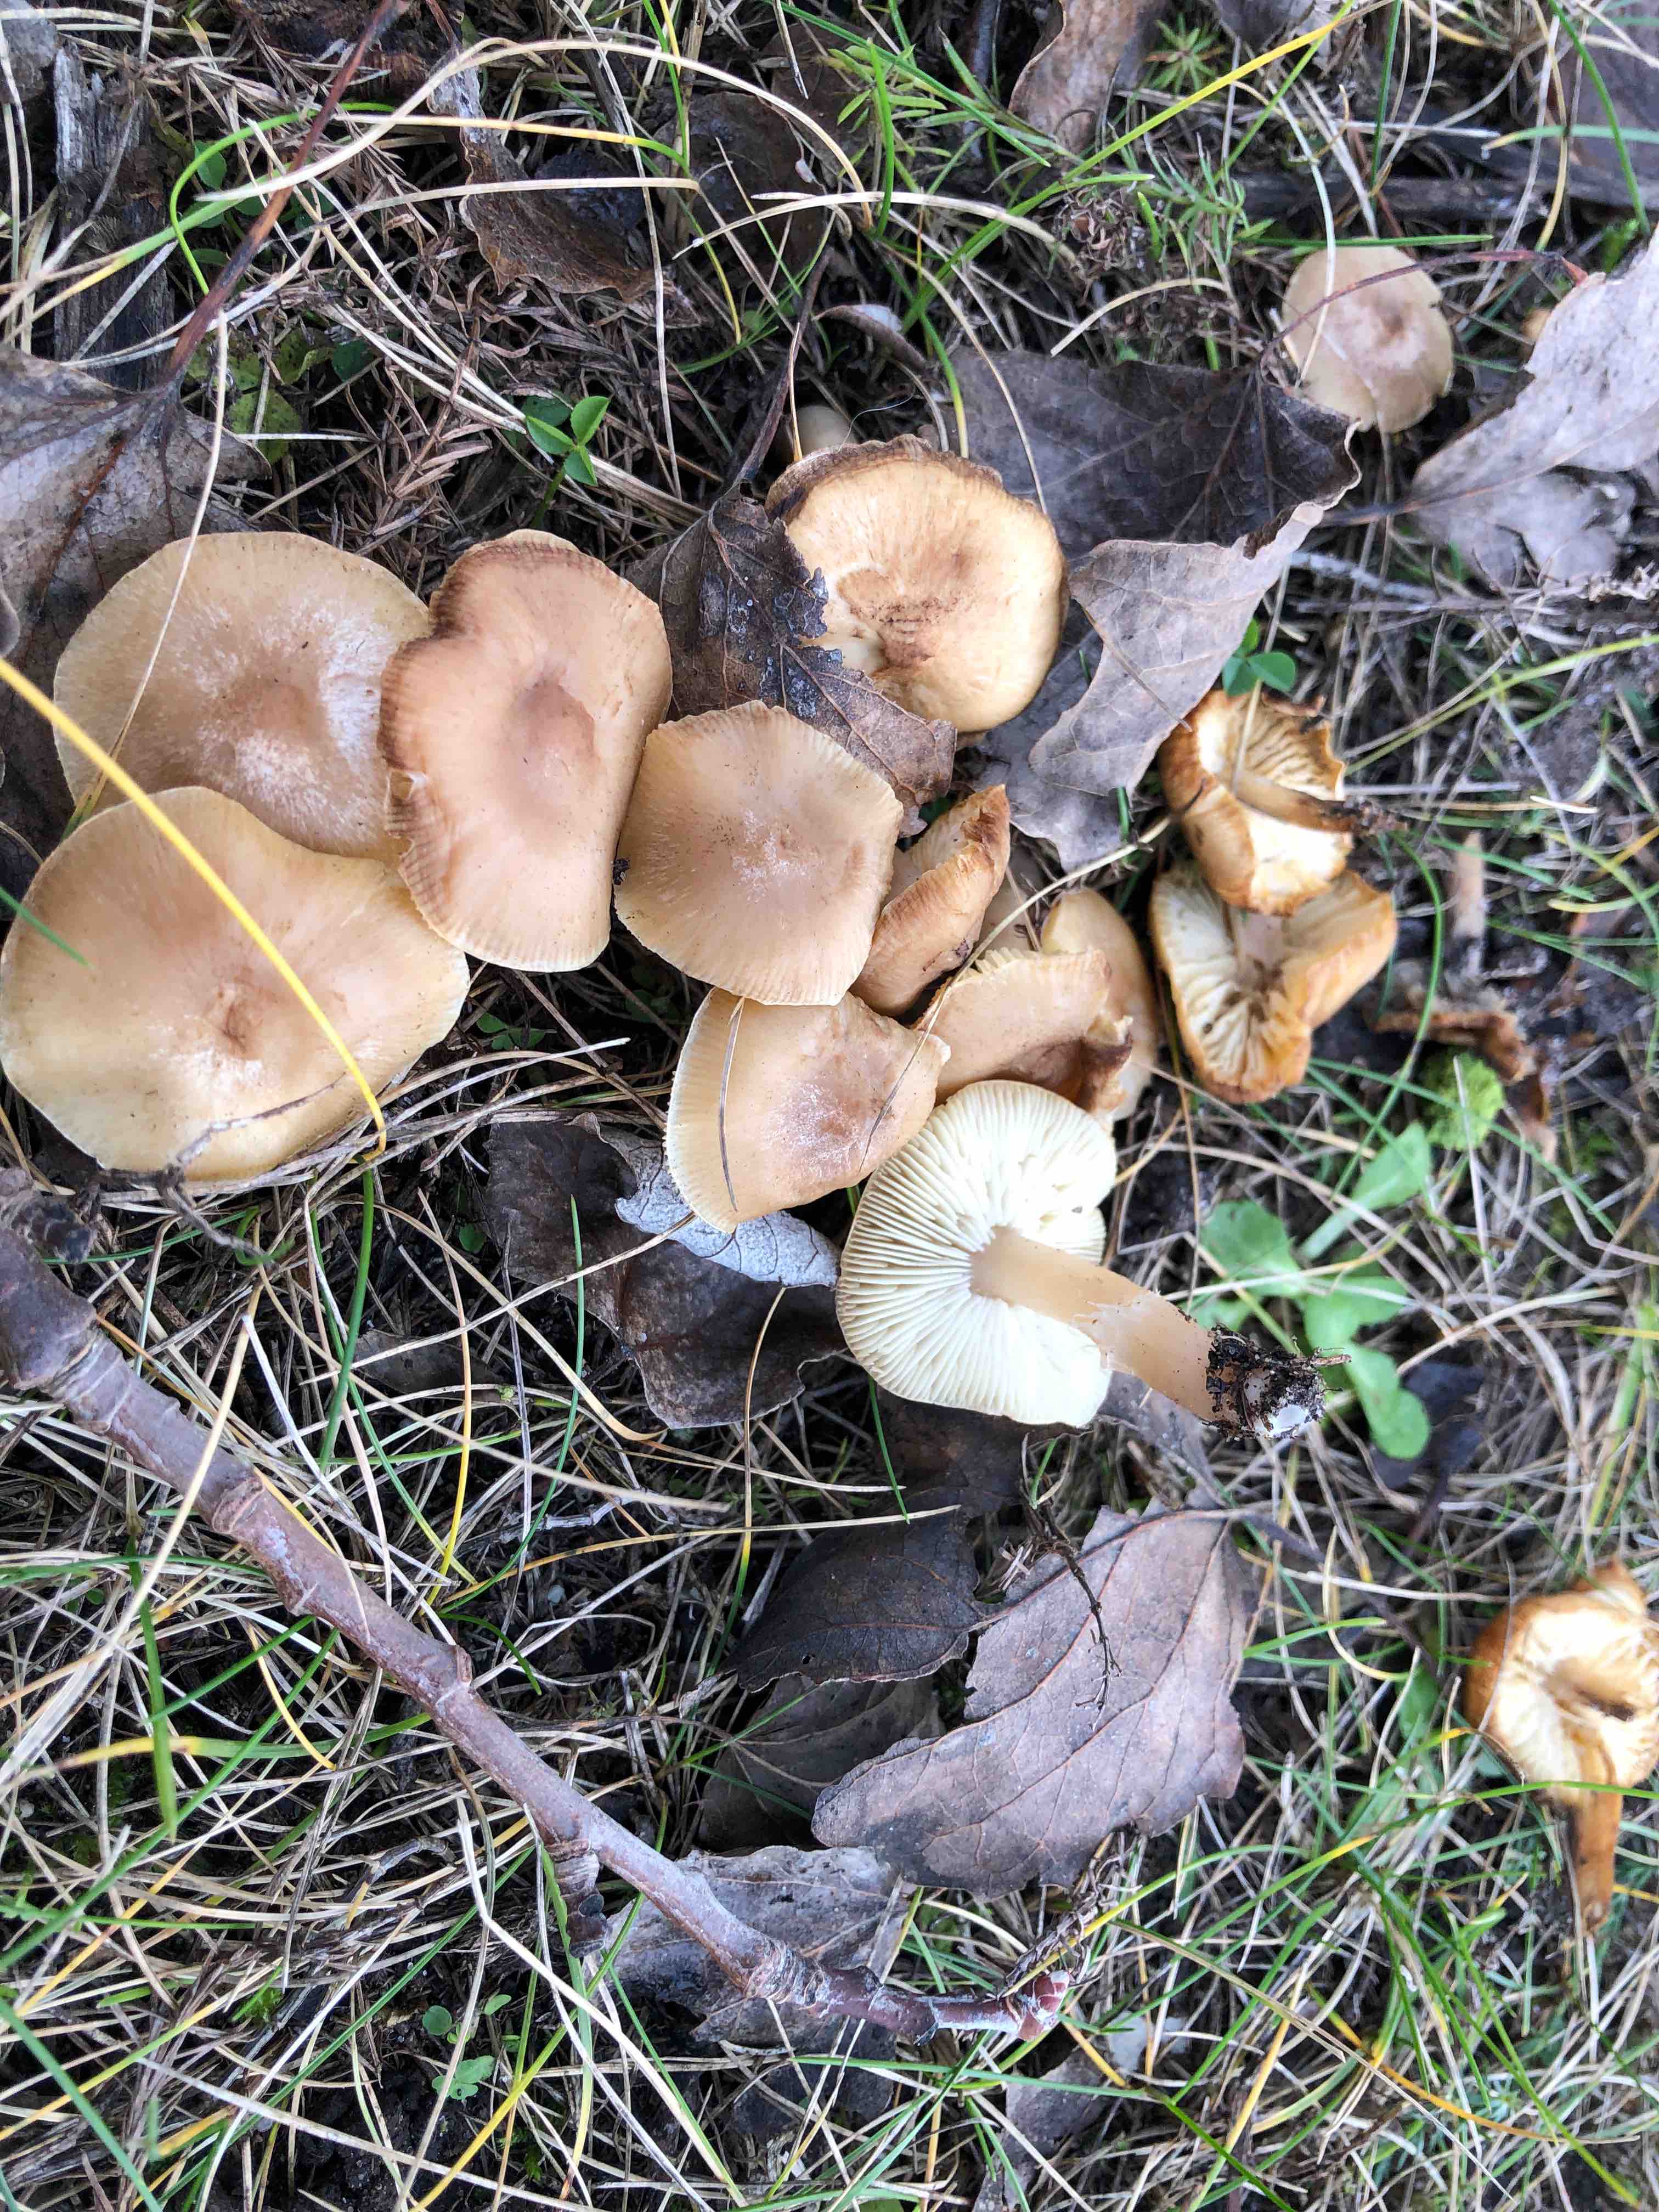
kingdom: Fungi
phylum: Basidiomycota
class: Agaricomycetes
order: Agaricales
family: Tricholomataceae
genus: Tricholoma
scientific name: Tricholoma
